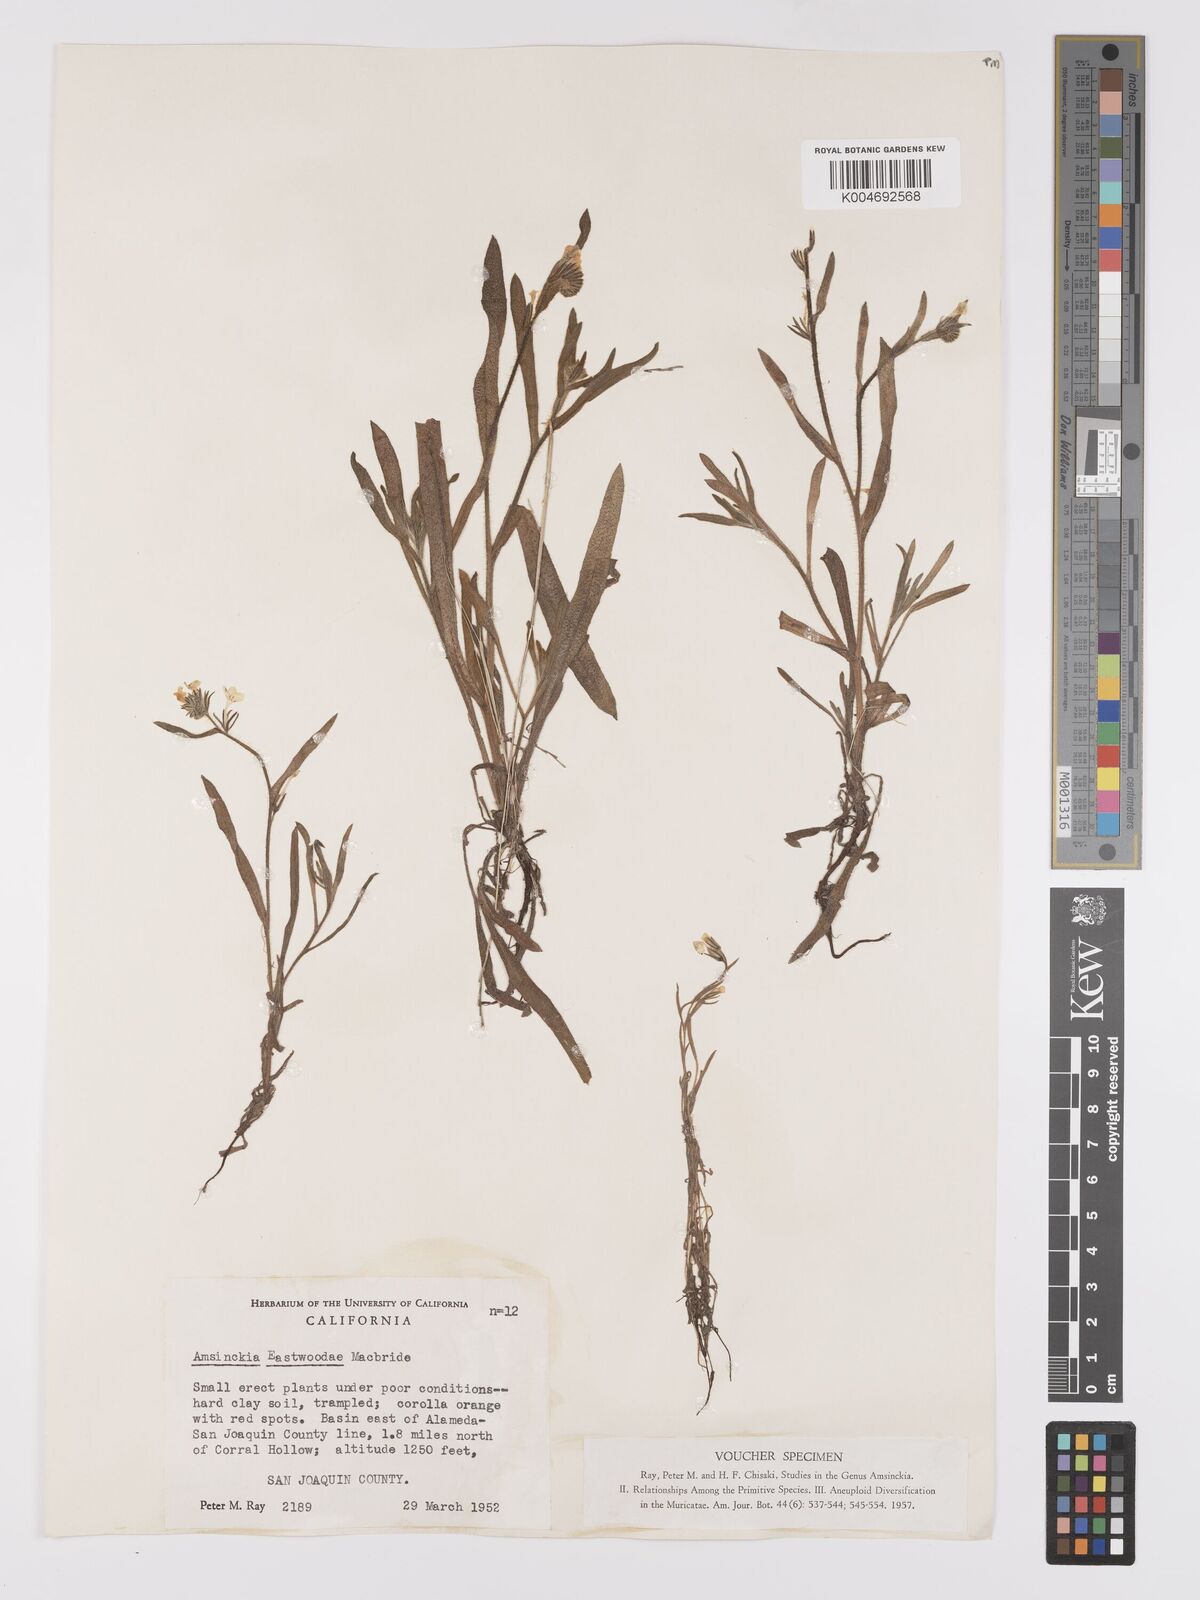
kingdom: Plantae
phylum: Tracheophyta
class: Magnoliopsida
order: Boraginales
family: Boraginaceae
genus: Amsinckia
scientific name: Amsinckia eastwoodiae
